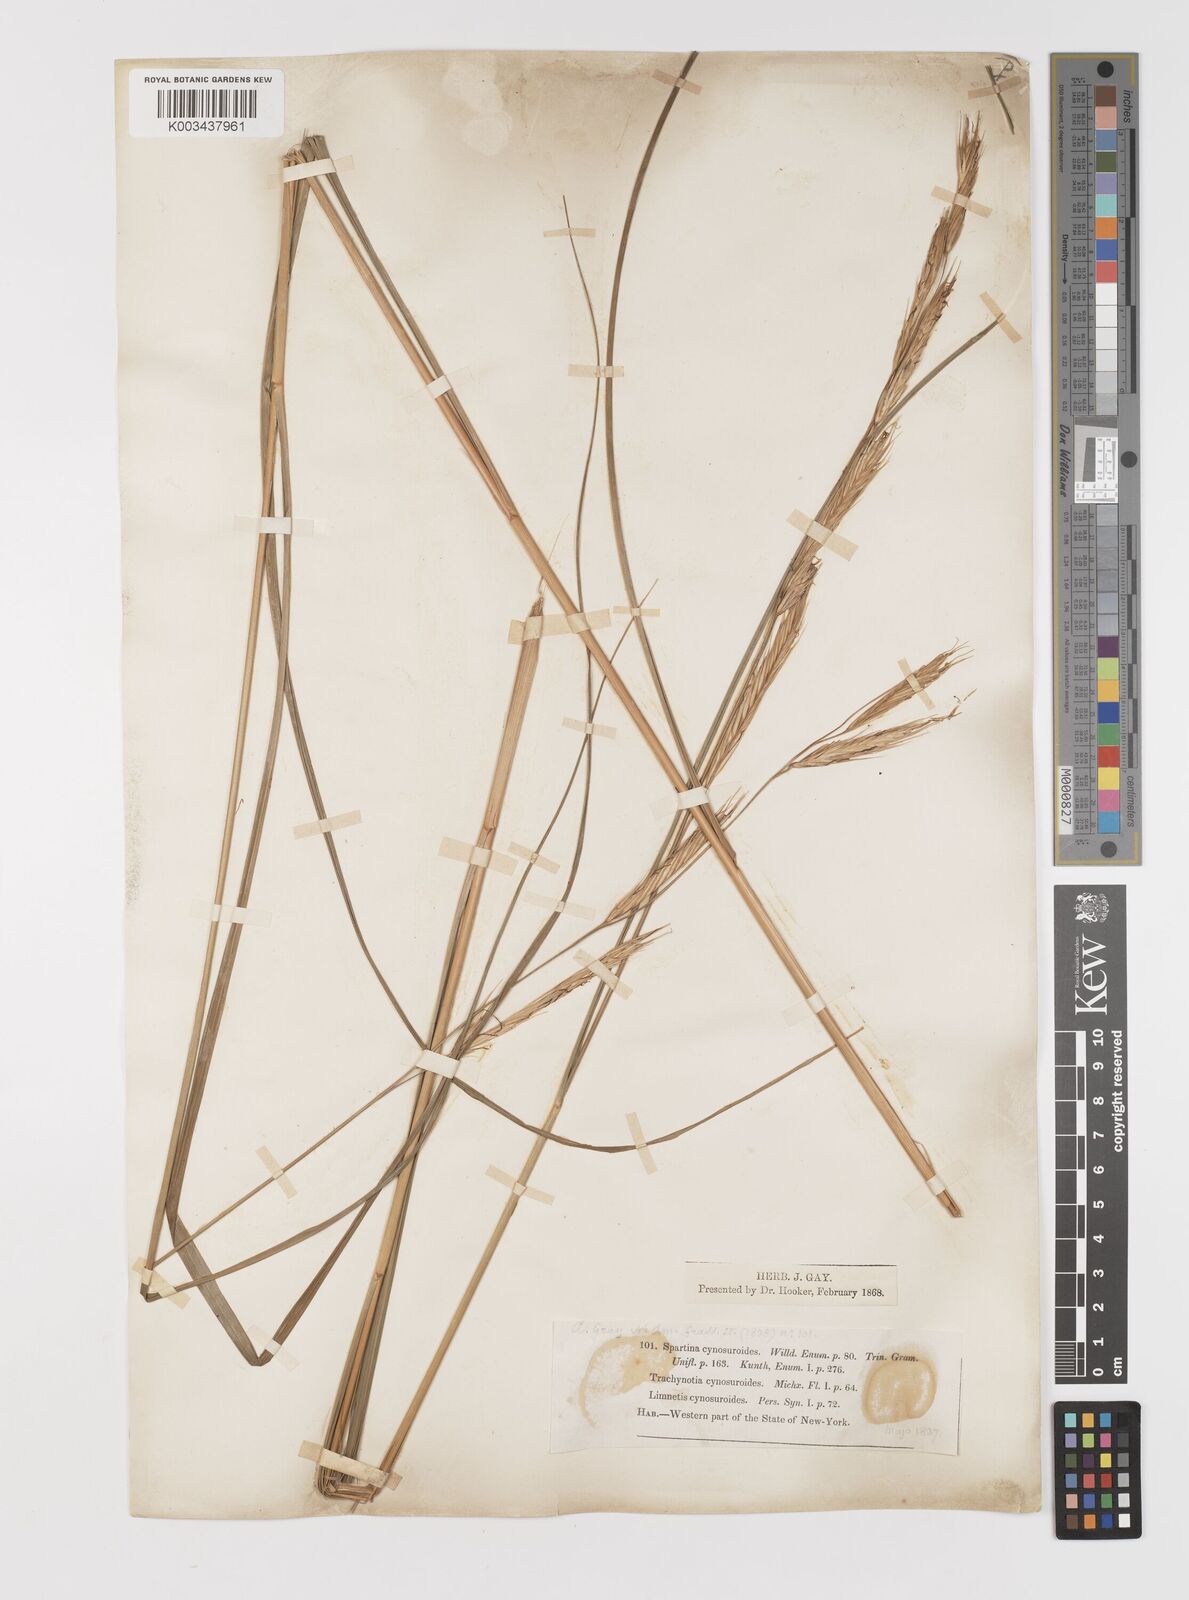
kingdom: Plantae
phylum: Tracheophyta
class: Liliopsida
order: Poales
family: Poaceae
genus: Sporobolus
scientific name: Sporobolus michauxianus
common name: Freshwater cordgrass
